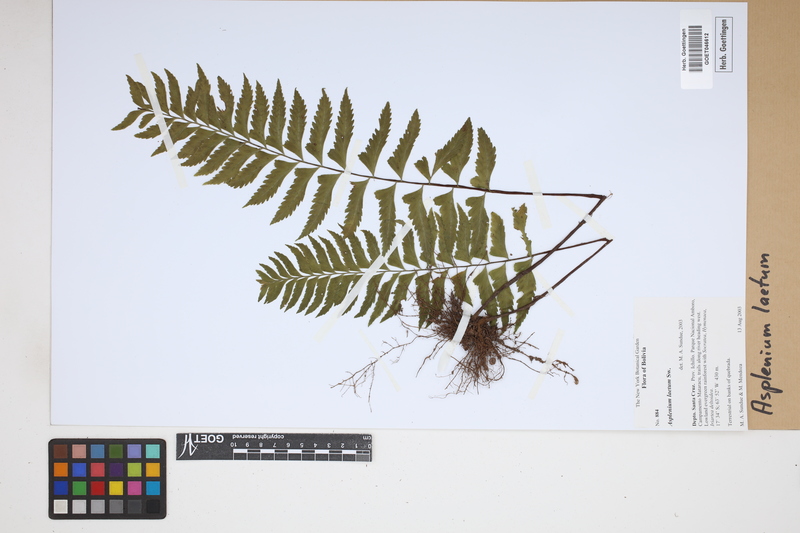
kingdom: Plantae
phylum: Tracheophyta
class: Polypodiopsida
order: Polypodiales
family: Aspleniaceae
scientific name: Aspleniaceae
